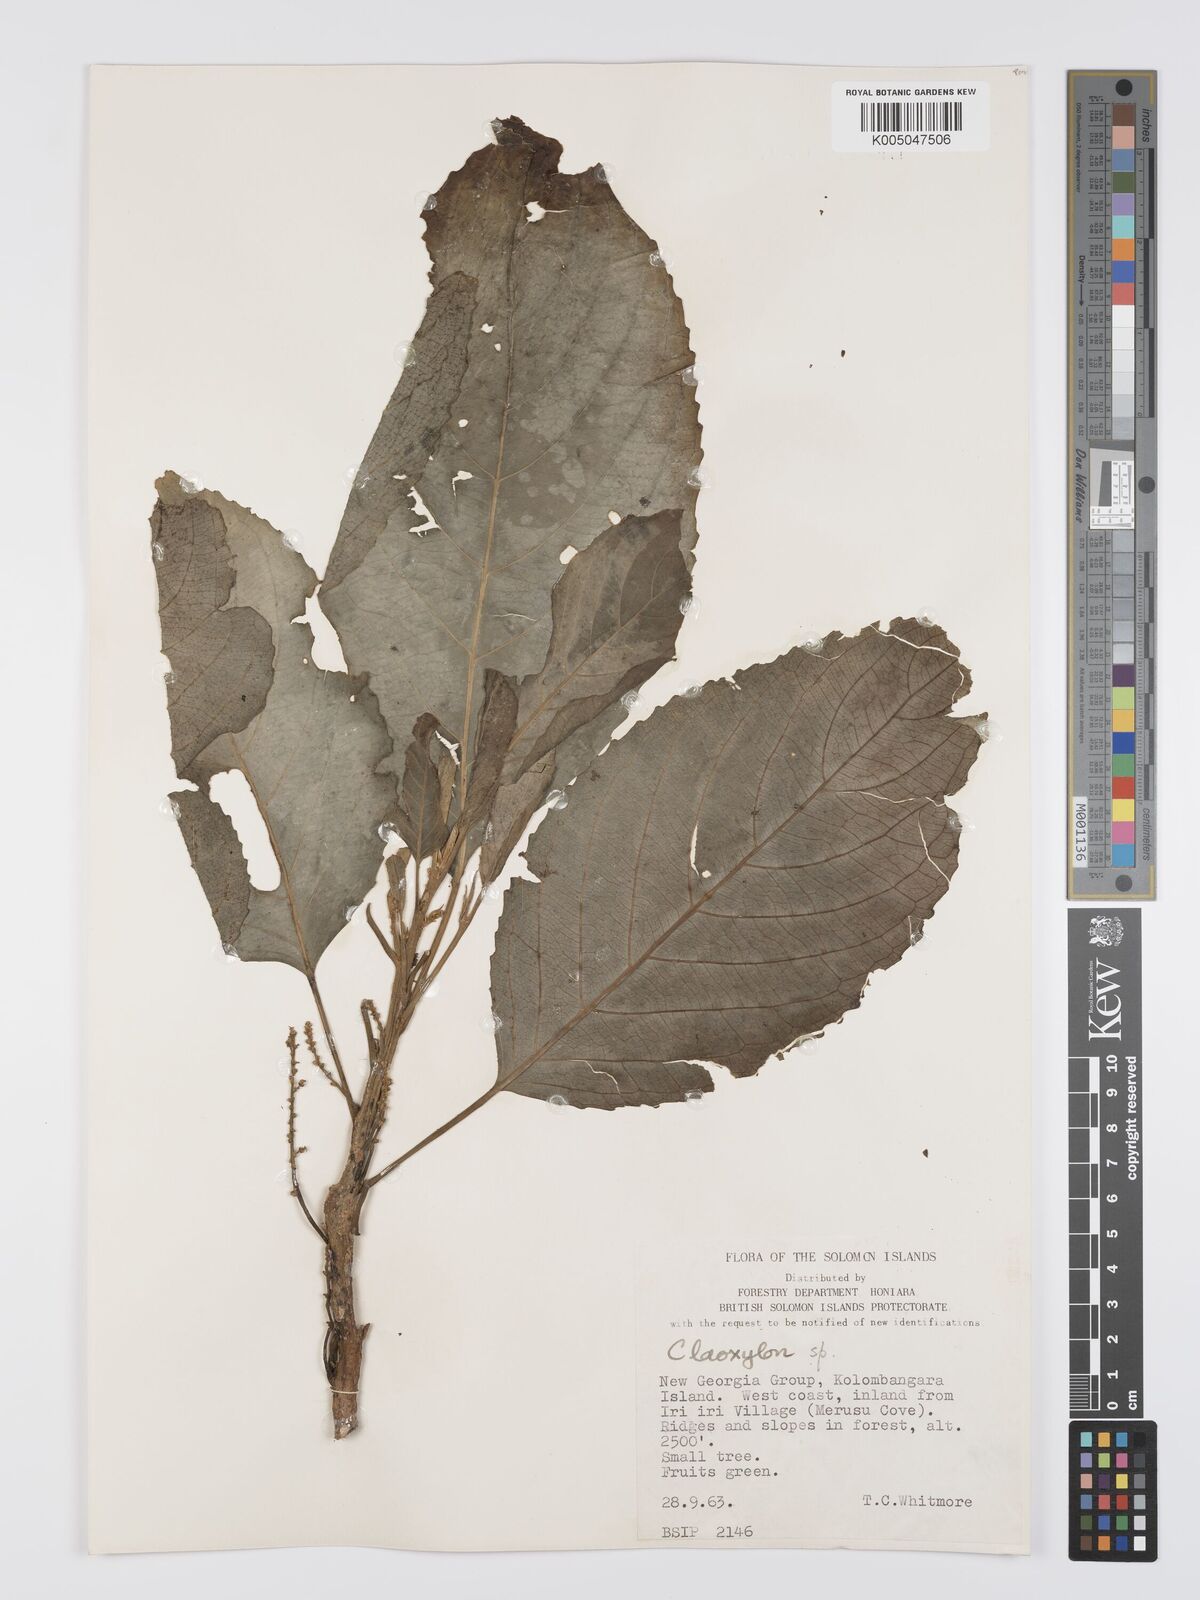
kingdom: Plantae
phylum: Tracheophyta
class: Magnoliopsida
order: Malpighiales
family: Euphorbiaceae
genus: Claoxylon
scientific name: Claoxylon carolinianum
